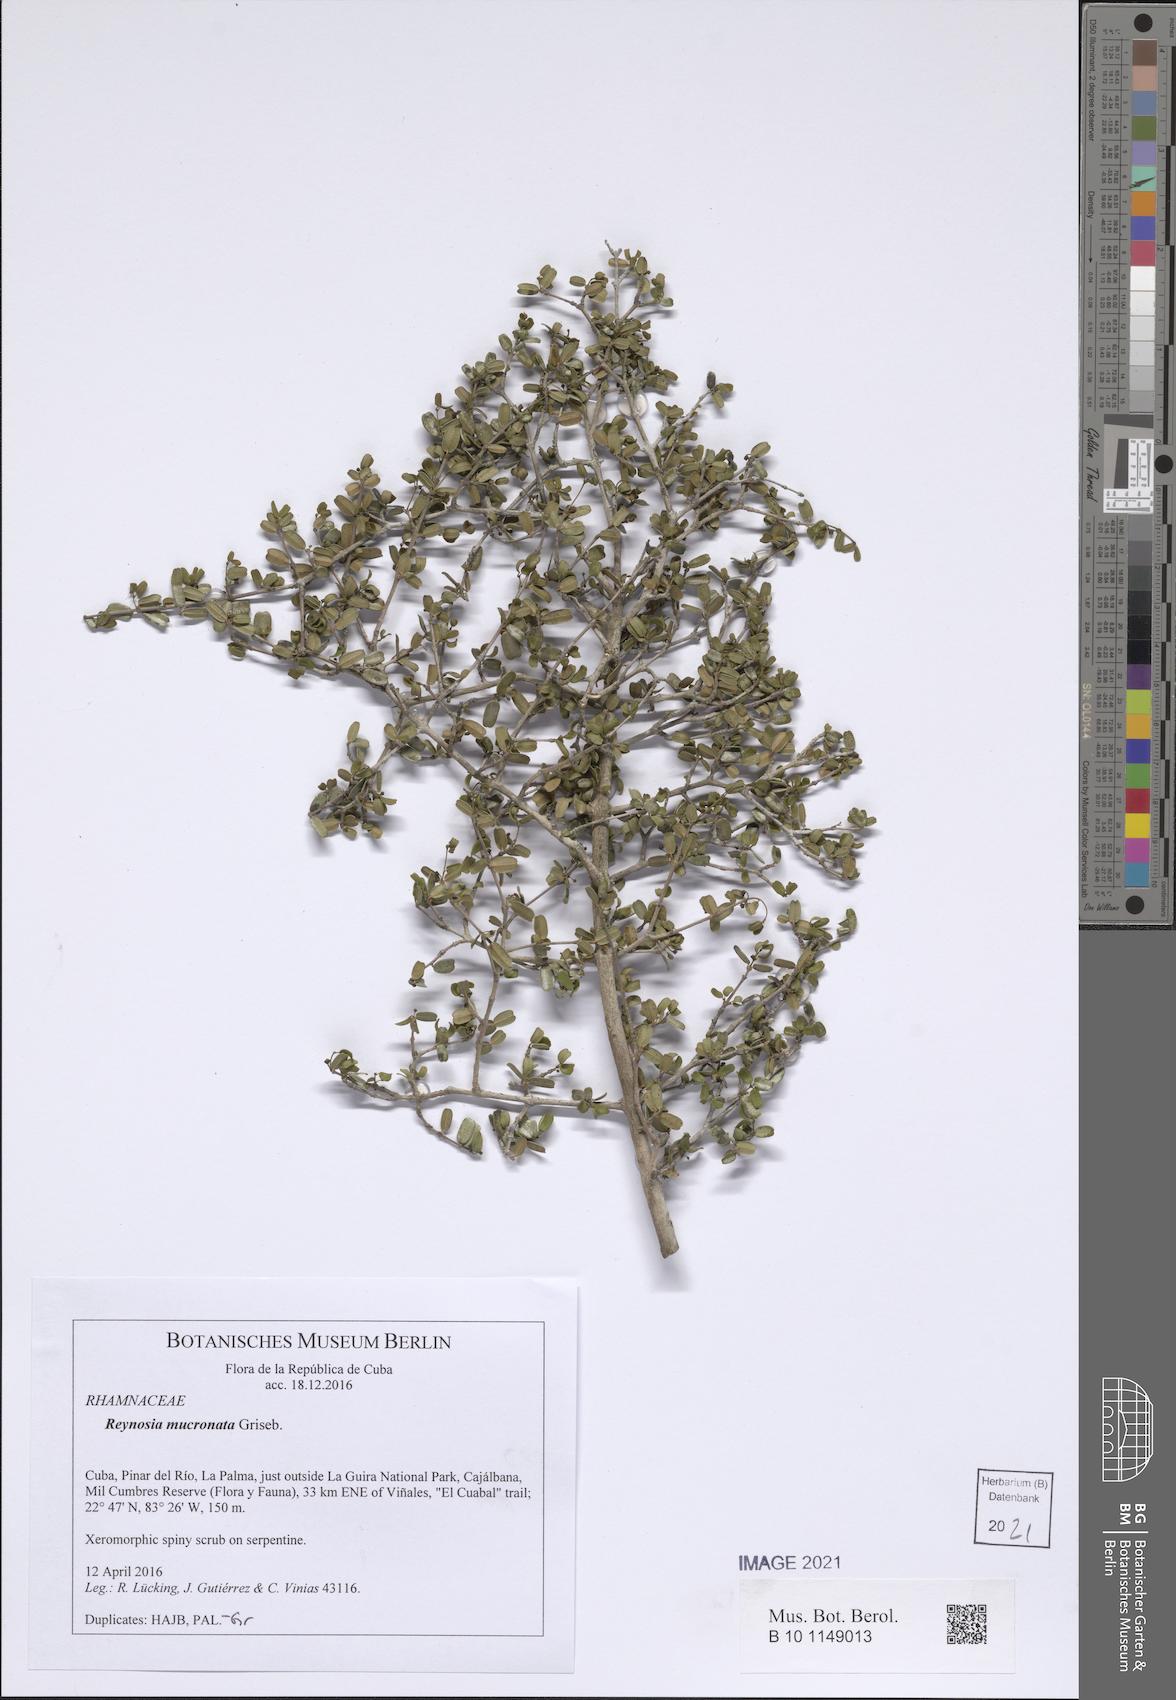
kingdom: Plantae
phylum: Tracheophyta
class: Magnoliopsida
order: Rosales
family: Rhamnaceae
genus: Reynosia
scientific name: Reynosia mucronata
